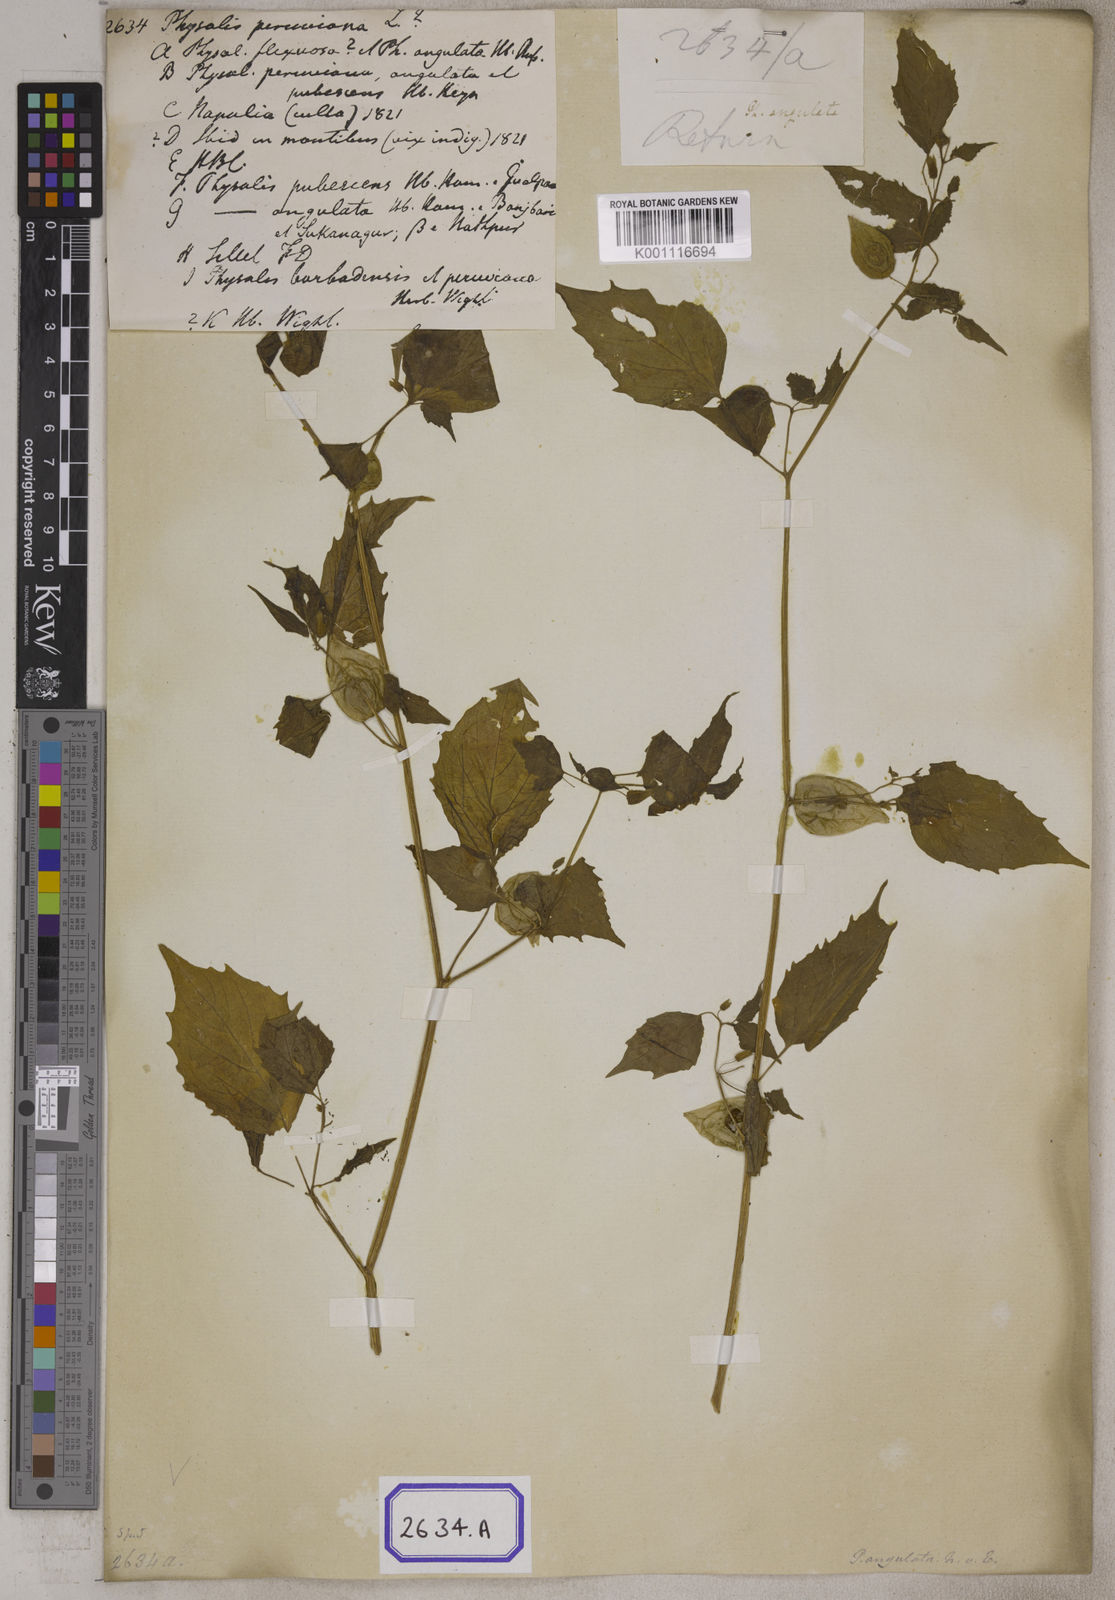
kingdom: Plantae
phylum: Tracheophyta
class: Magnoliopsida
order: Solanales
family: Solanaceae
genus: Physalis
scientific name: Physalis peruviana
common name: Cape-gooseberry
